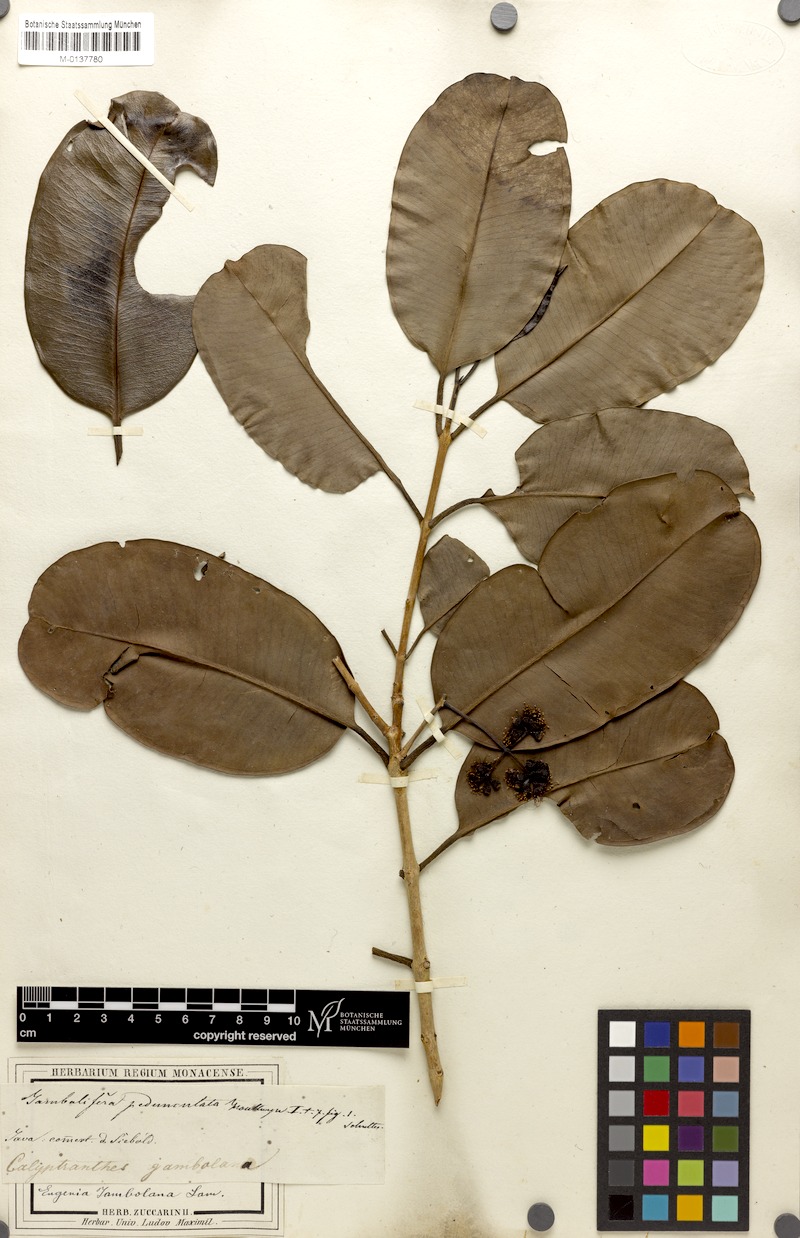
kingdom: Plantae
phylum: Tracheophyta
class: Magnoliopsida
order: Myrtales
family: Myrtaceae
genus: Syzygium
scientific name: Syzygium cumini
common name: Java plum
